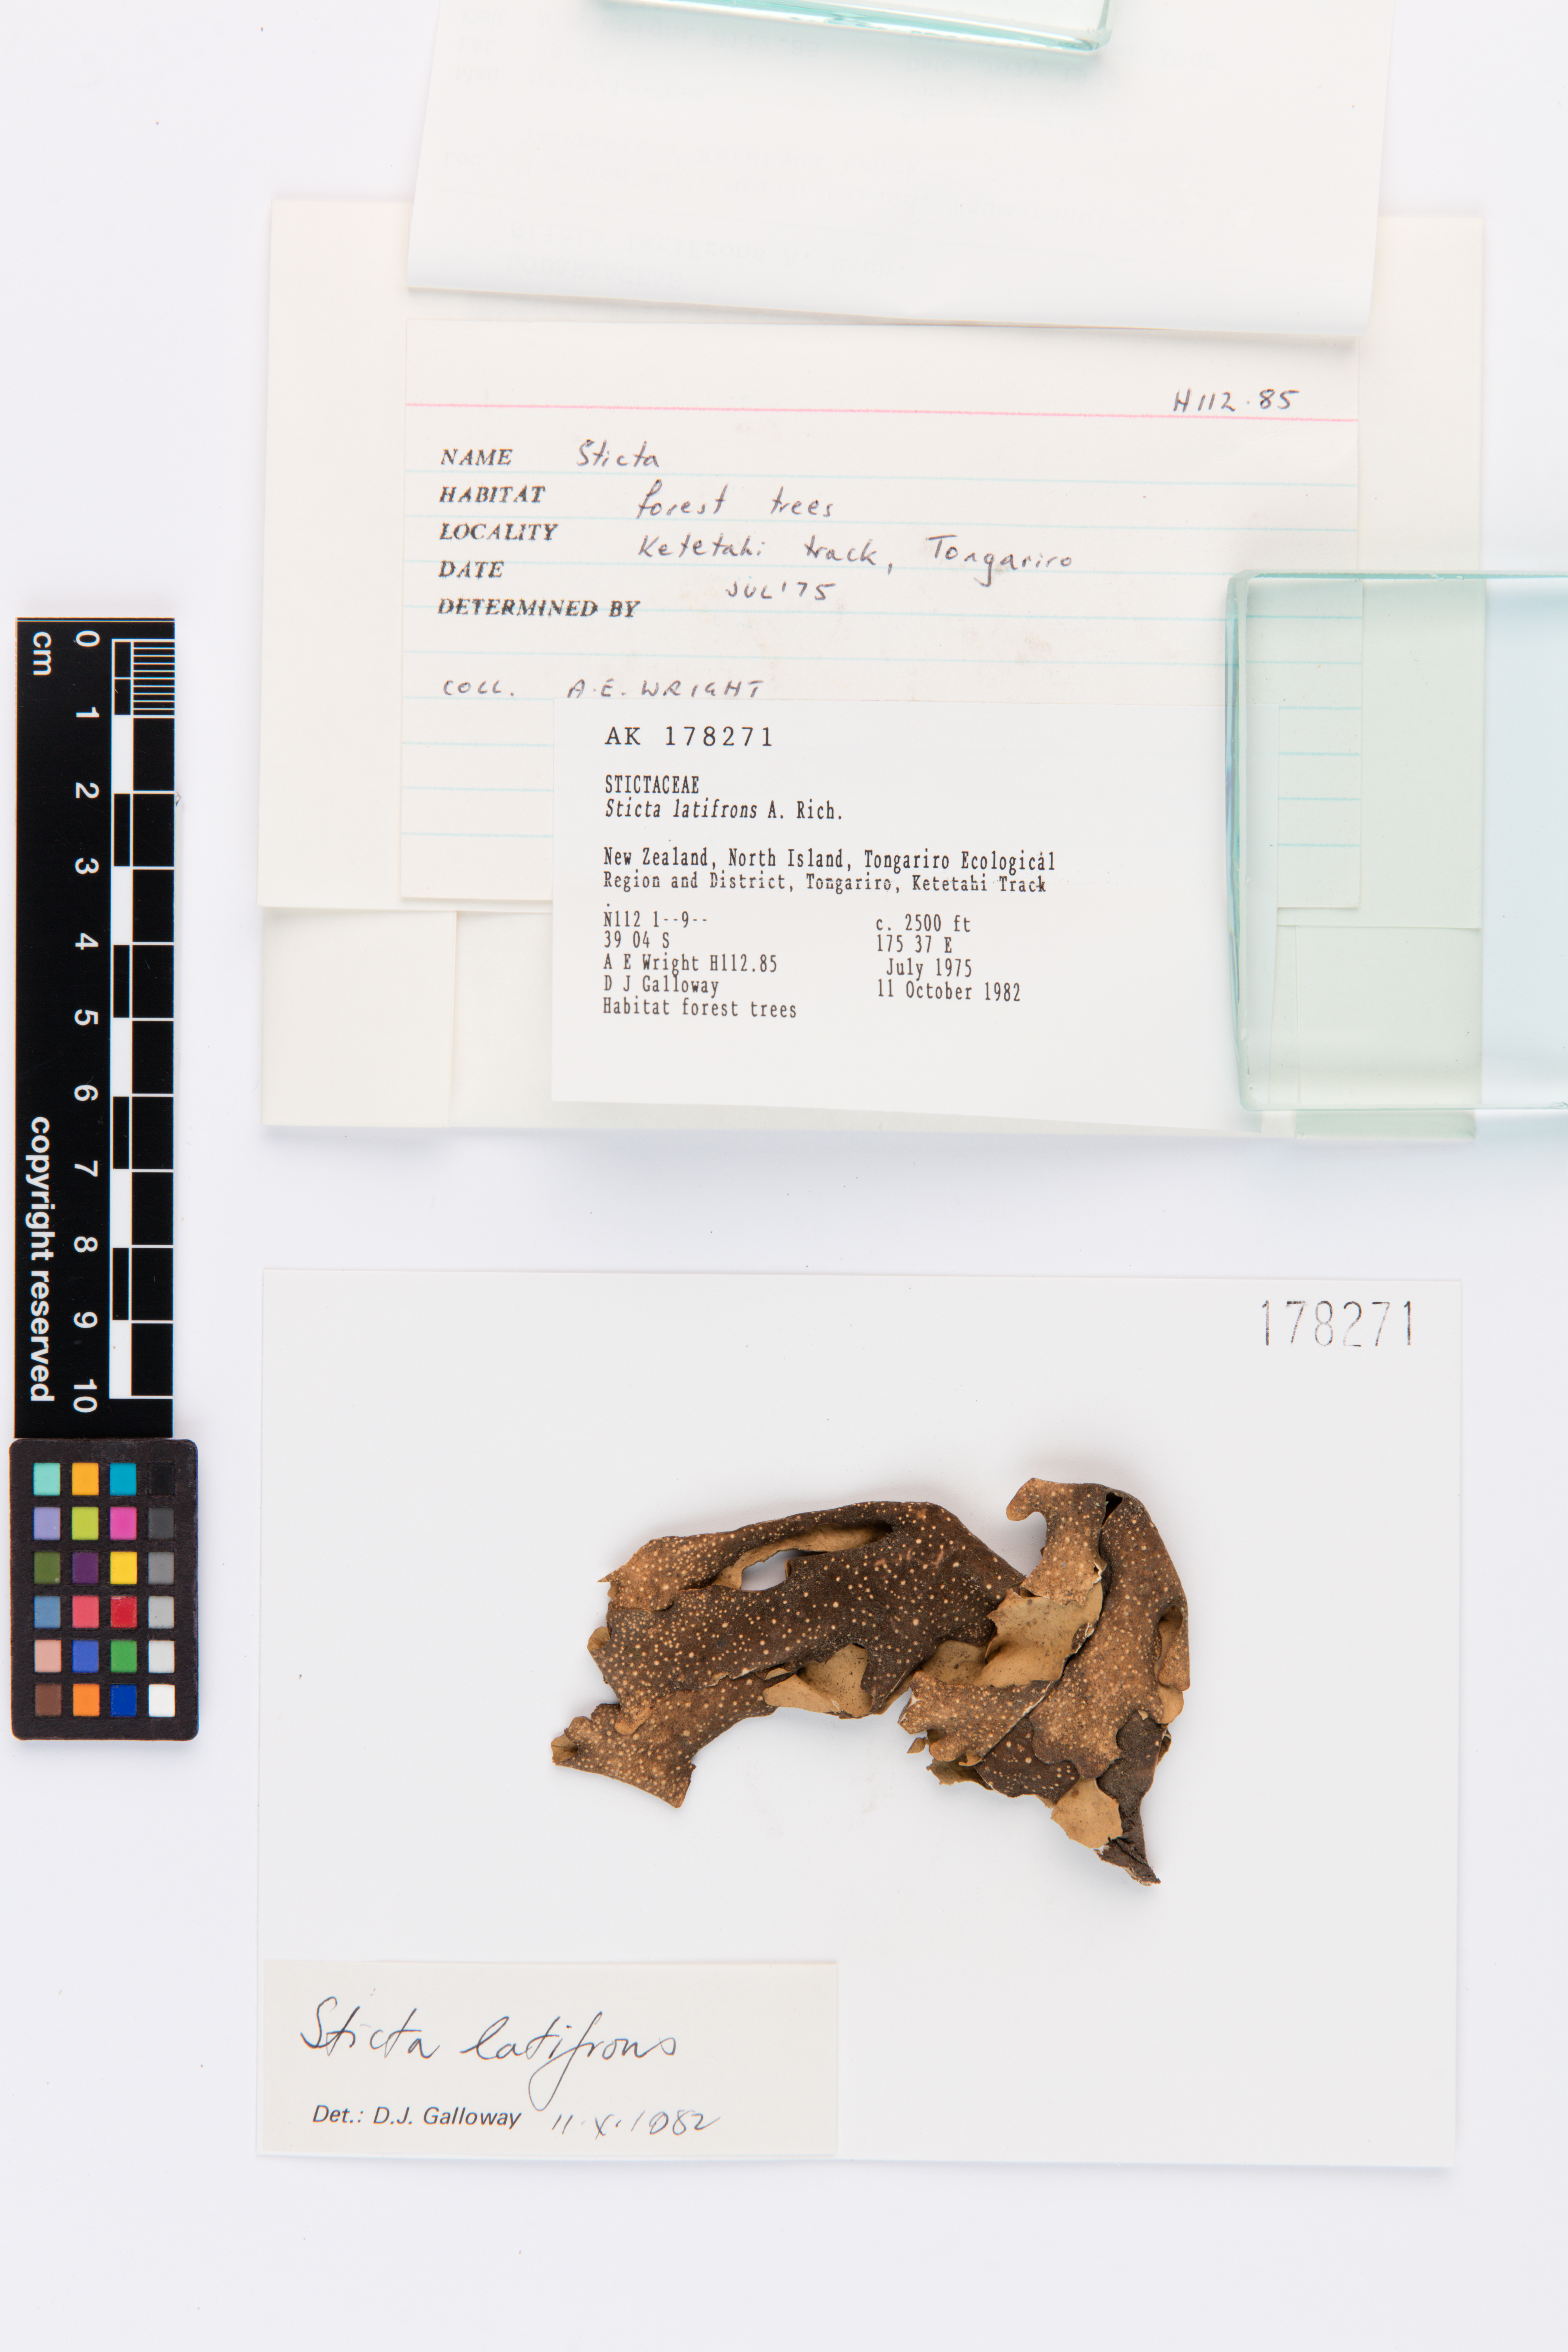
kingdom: Fungi
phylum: Ascomycota
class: Lecanoromycetes
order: Peltigerales
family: Lobariaceae
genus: Sticta
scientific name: Sticta latifrons
